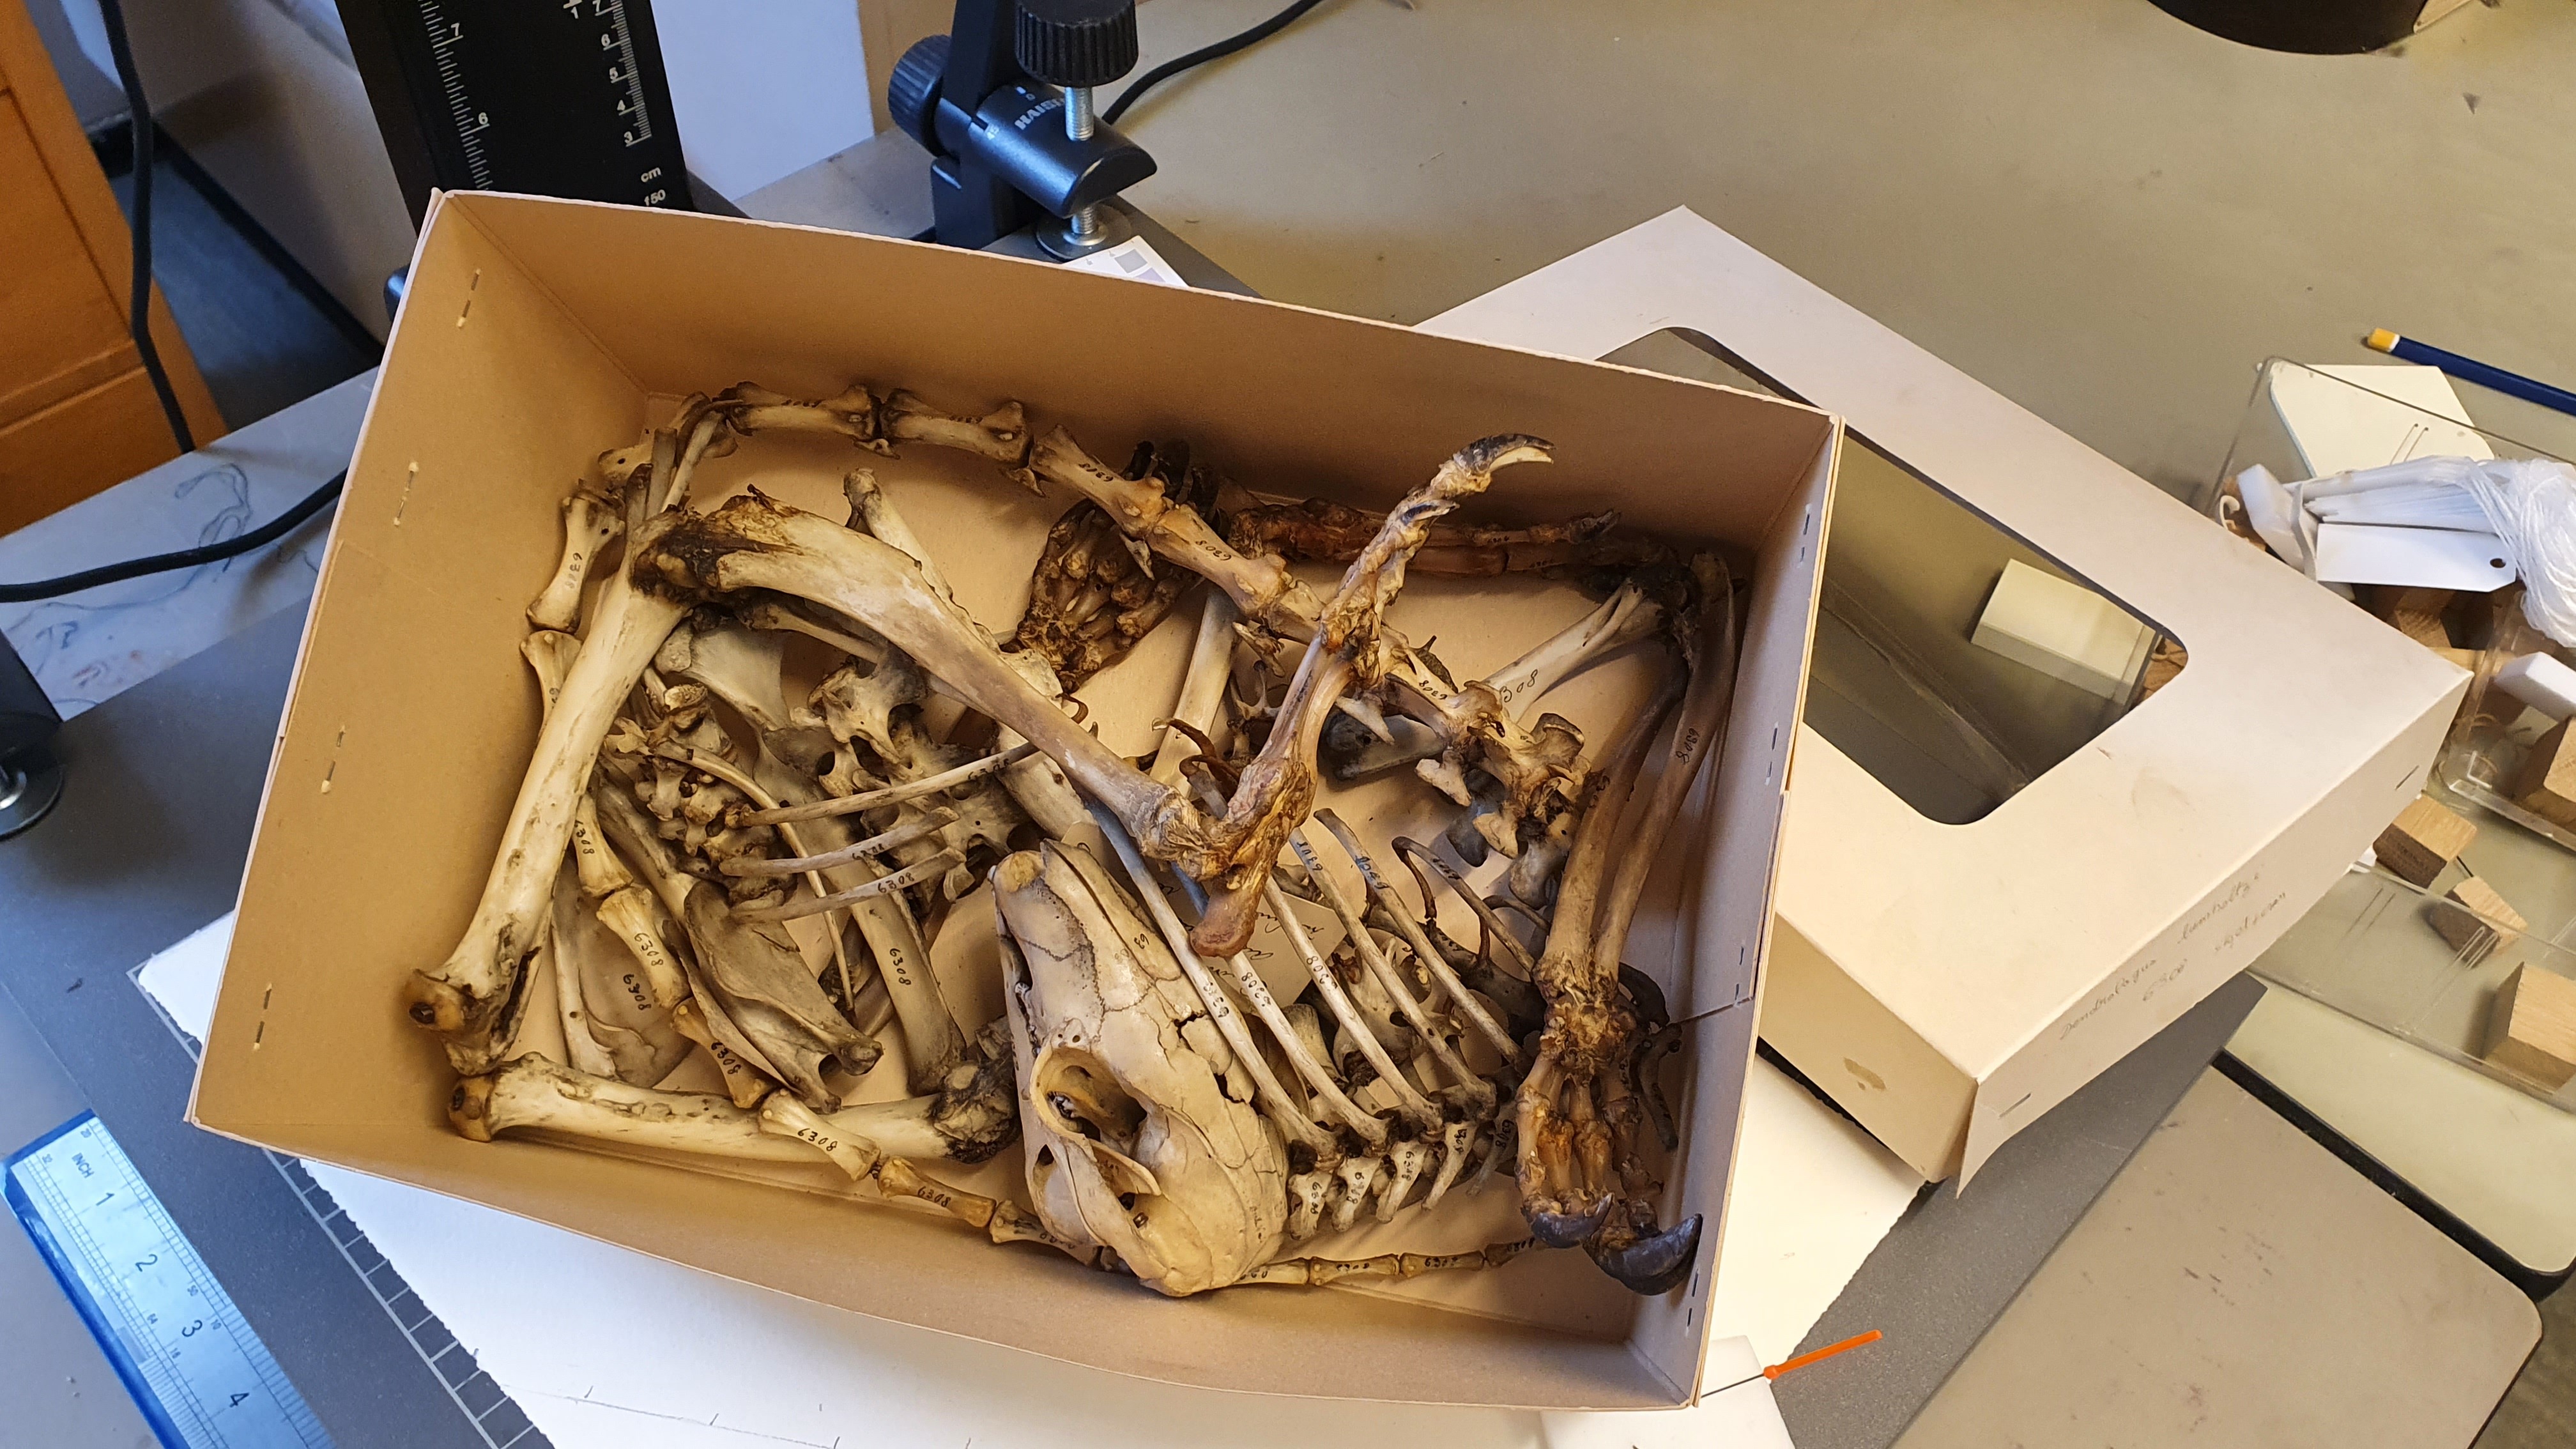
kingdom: Animalia
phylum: Chordata
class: Mammalia
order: Diprotodontia
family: Macropodidae
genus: Dendrolagus
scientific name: Dendrolagus lumholtzi
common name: Lumholtz's tree kangaroo
